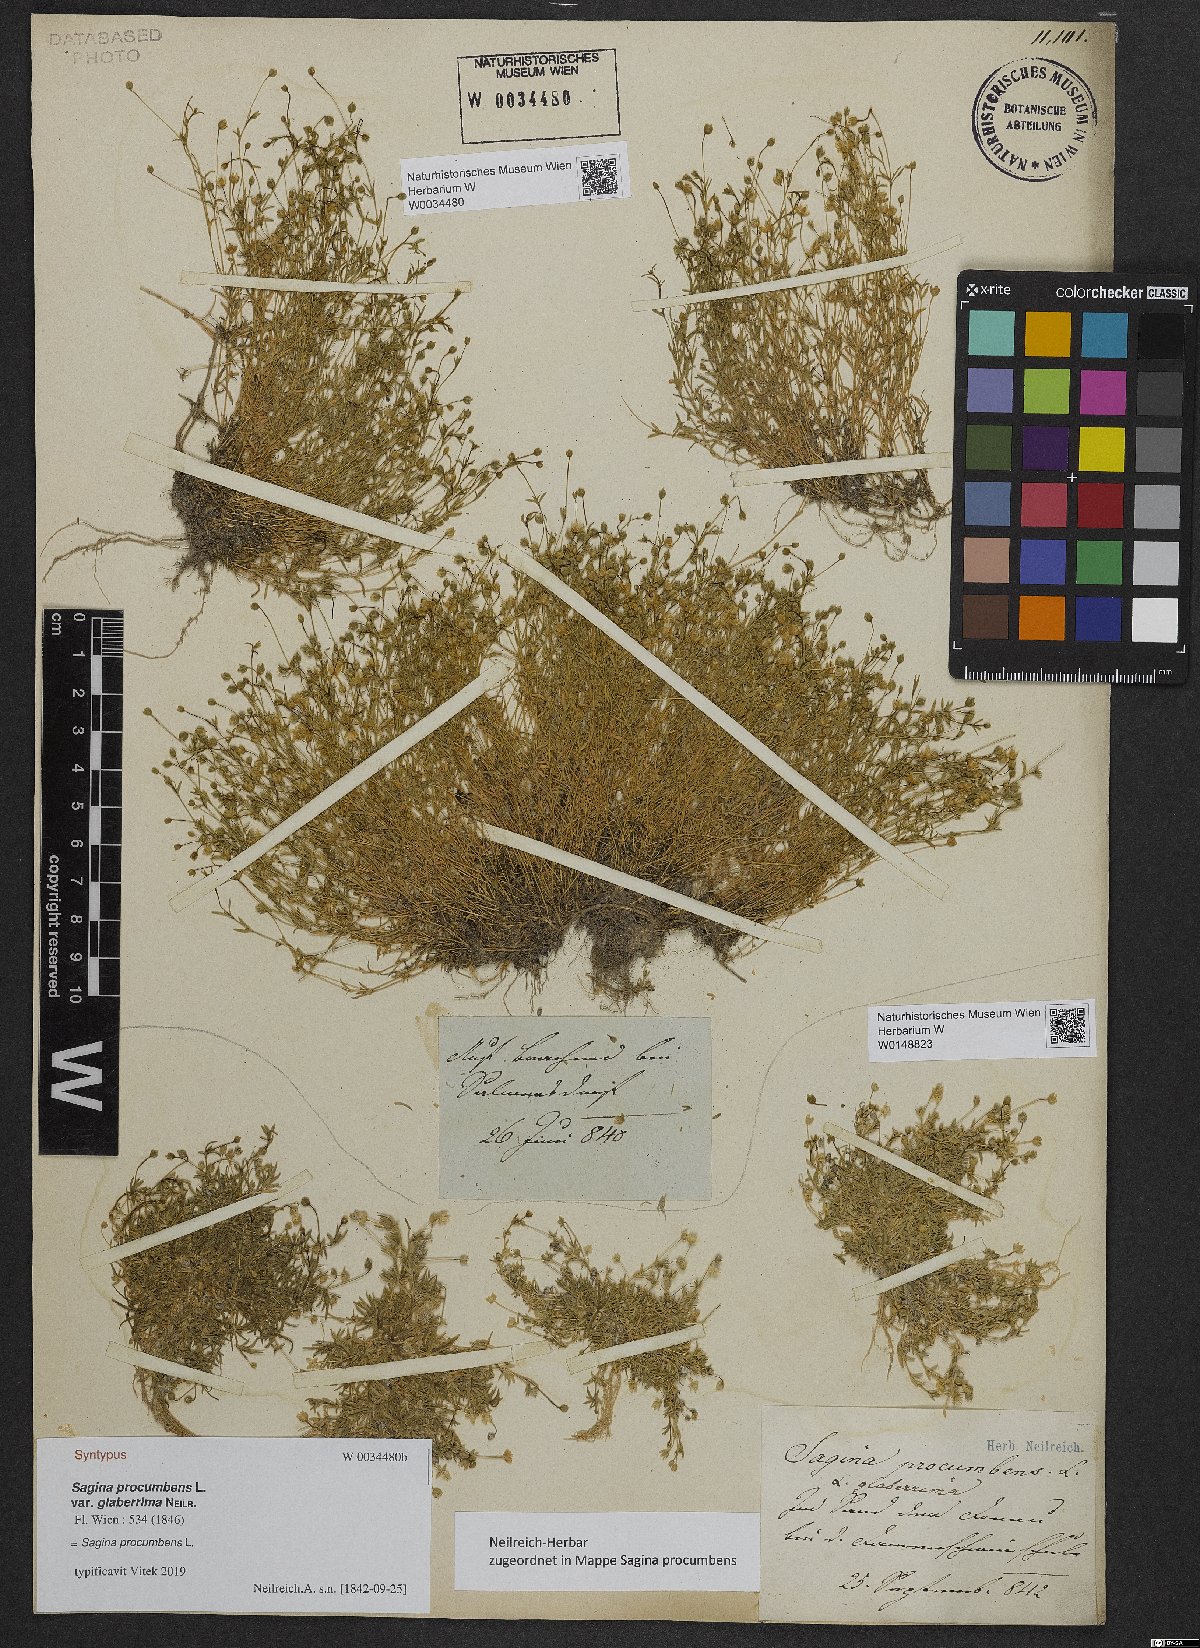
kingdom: Plantae
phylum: Tracheophyta
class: Magnoliopsida
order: Caryophyllales
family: Caryophyllaceae
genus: Sagina
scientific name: Sagina procumbens
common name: Procumbent pearlwort
